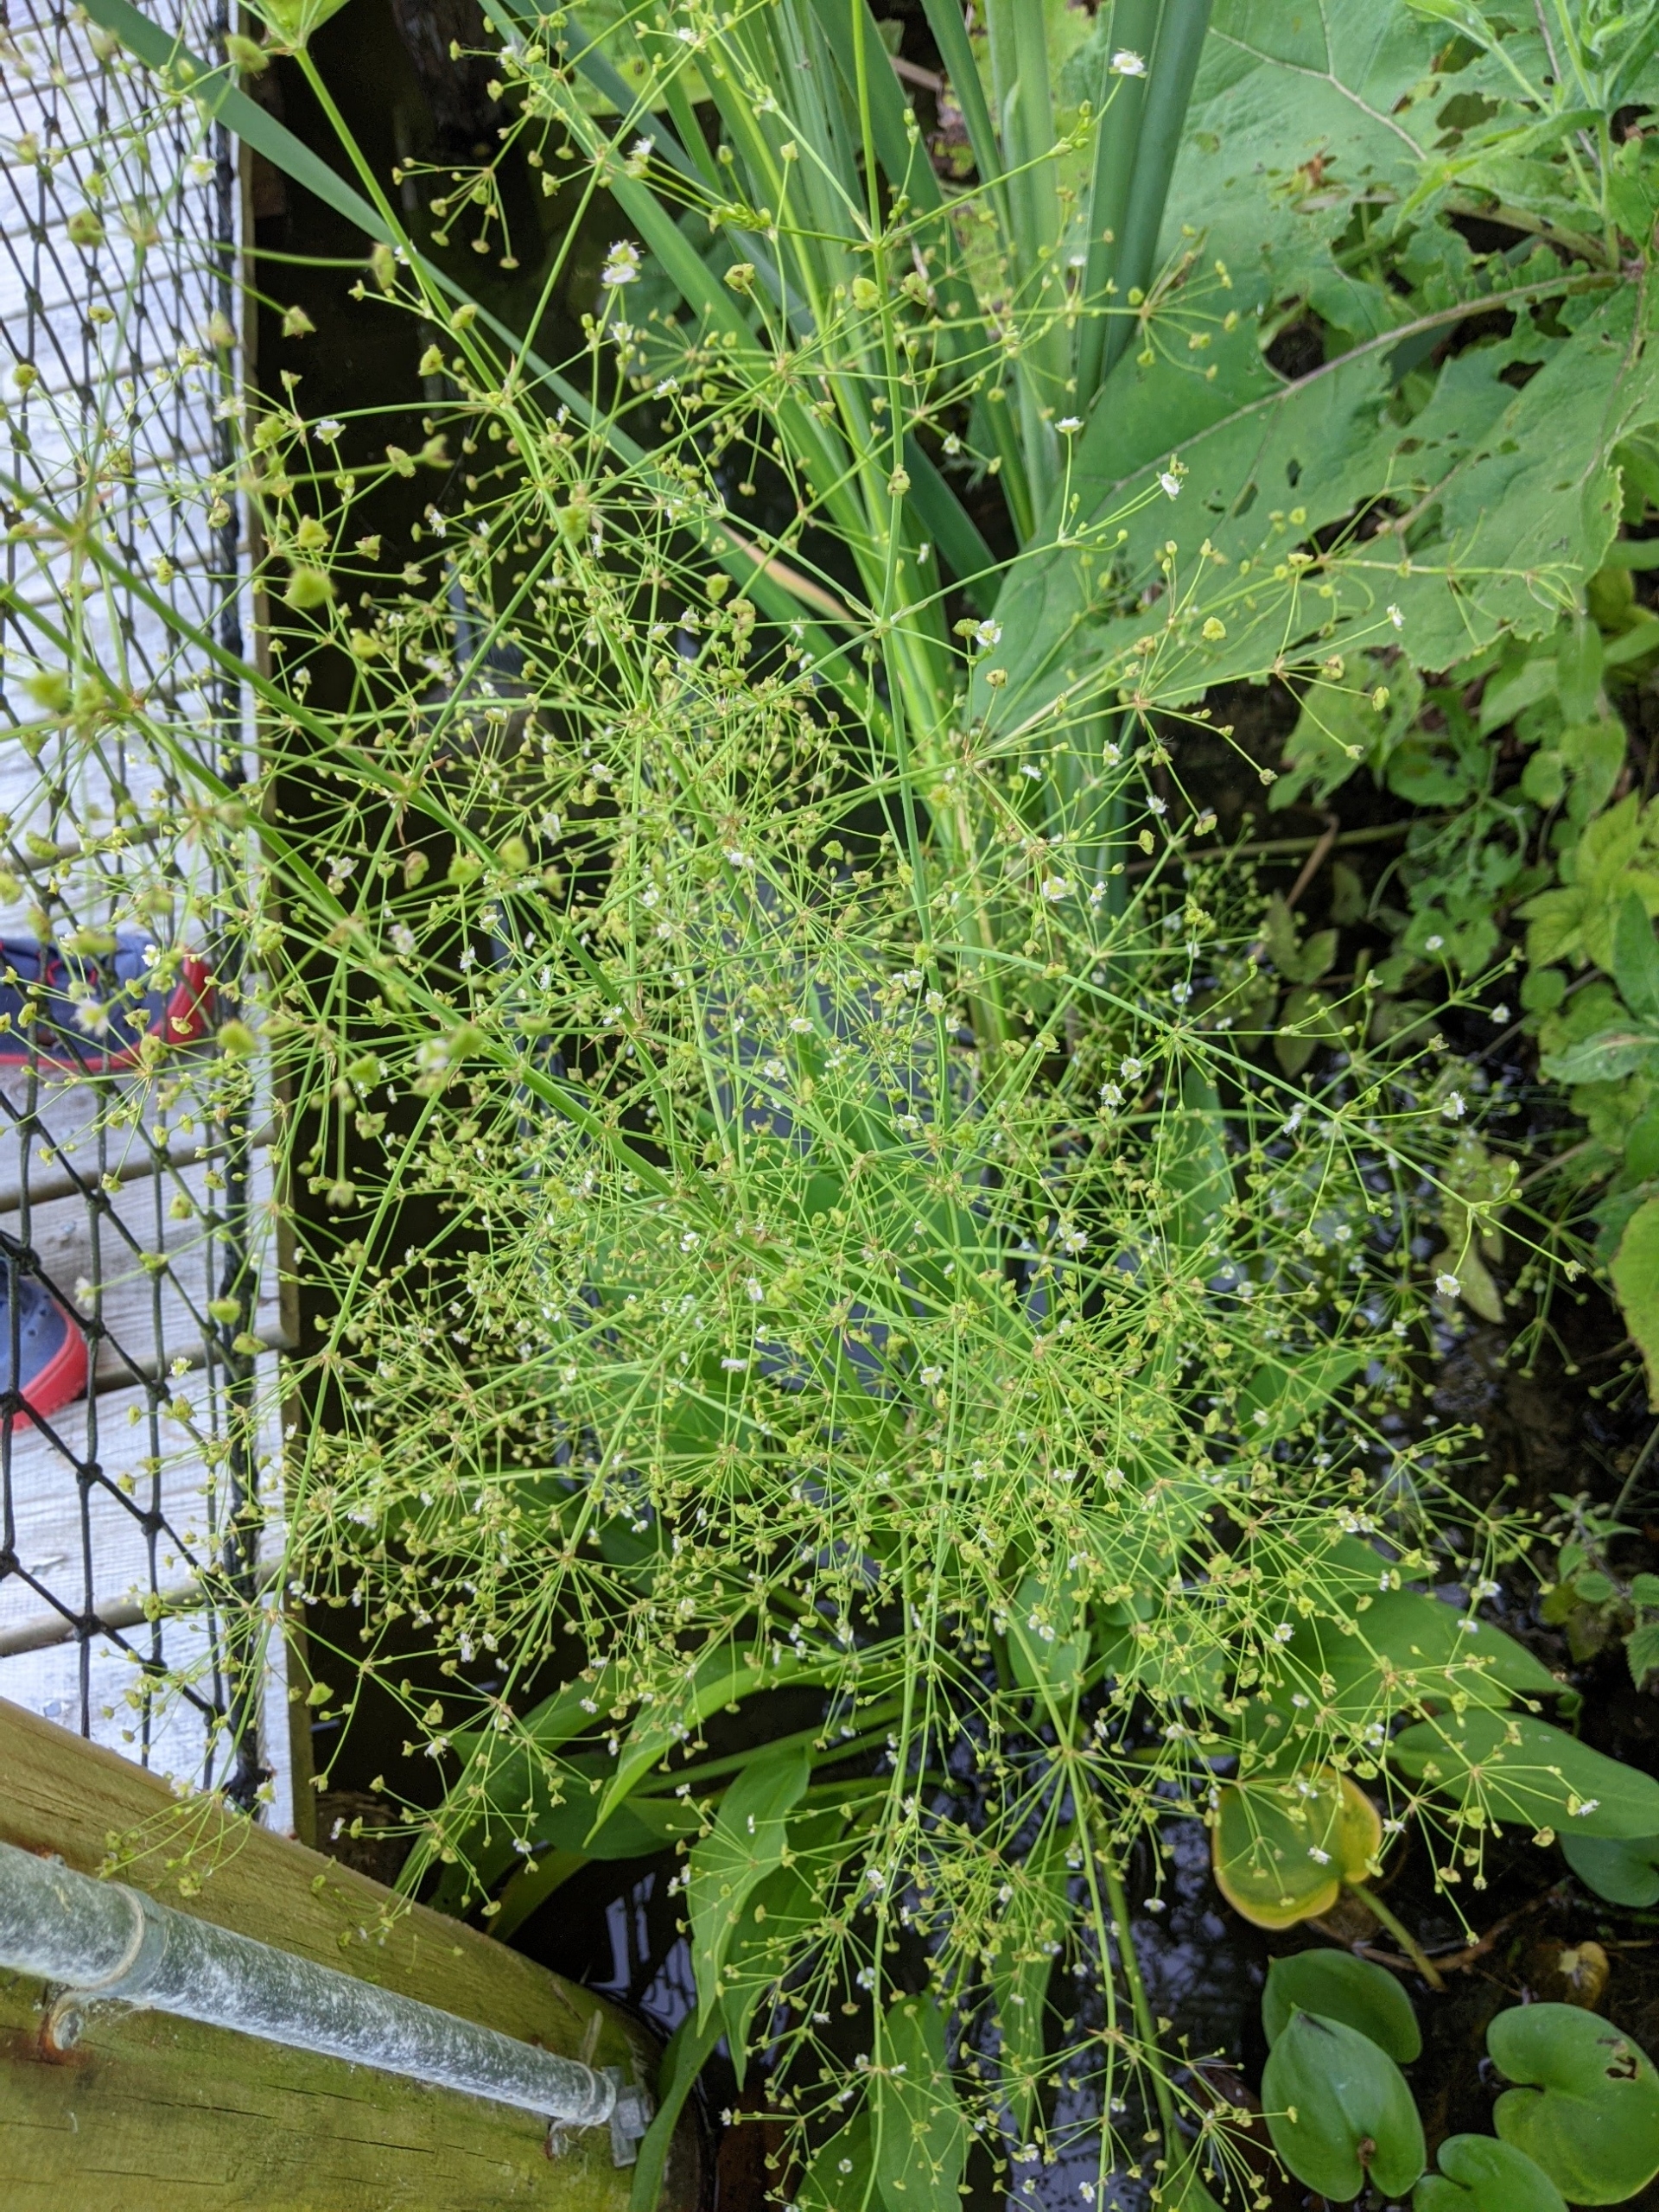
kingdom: Plantae
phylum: Tracheophyta
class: Liliopsida
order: Alismatales
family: Alismataceae
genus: Alisma
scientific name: Alisma plantago-aquatica
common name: Vejbred-skeblad
